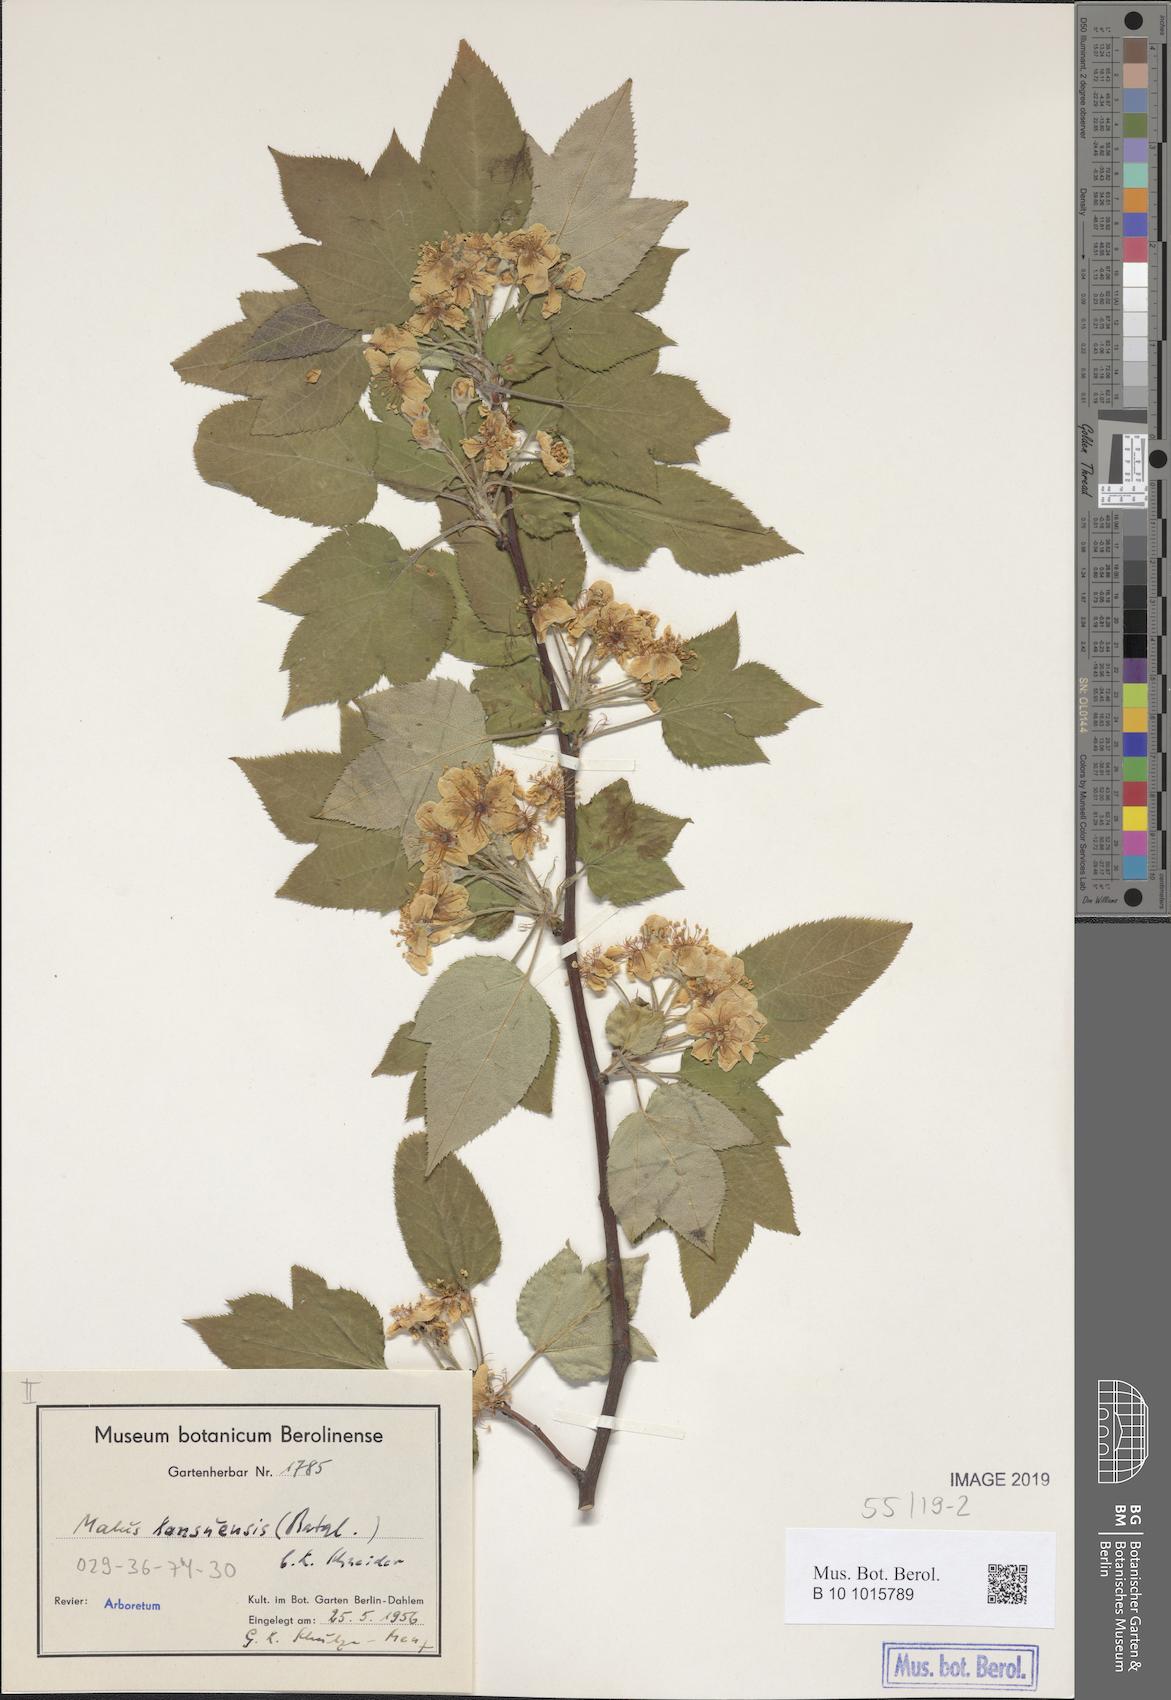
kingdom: Plantae
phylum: Tracheophyta
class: Magnoliopsida
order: Rosales
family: Rosaceae
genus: Malus
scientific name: Malus kansuensis
